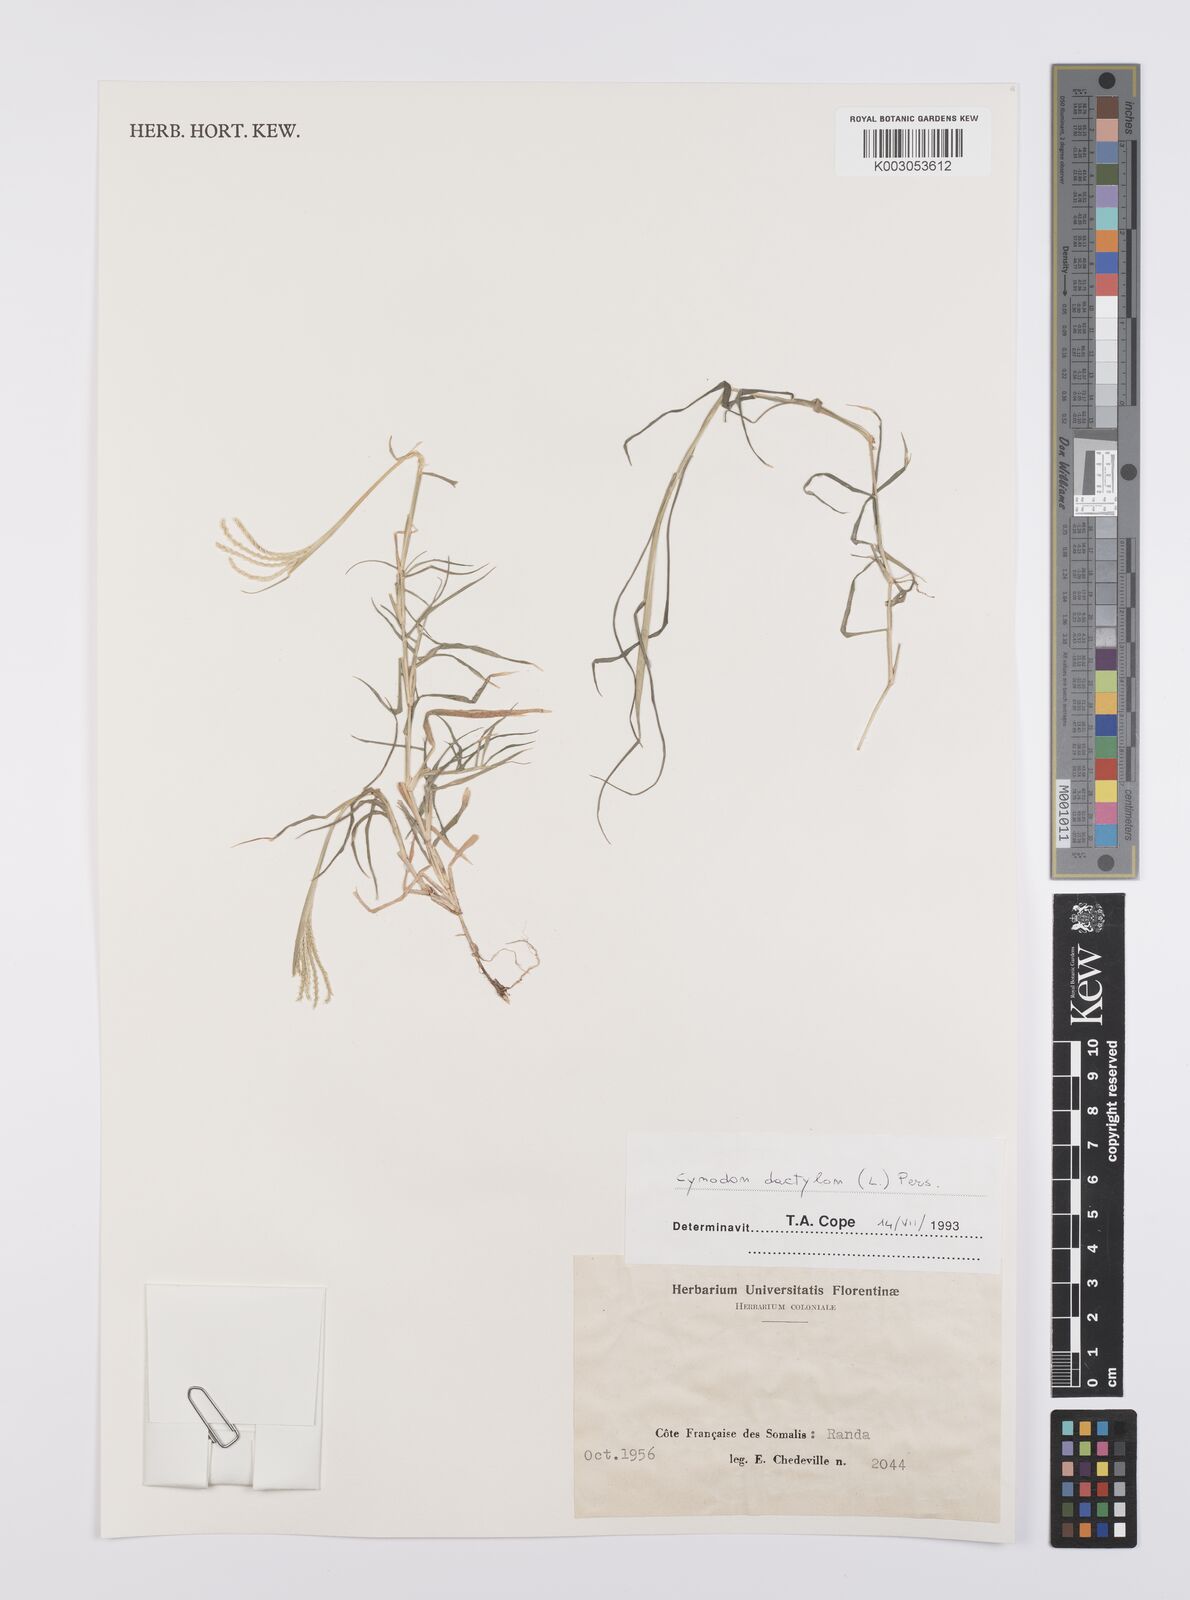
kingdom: Plantae
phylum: Tracheophyta
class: Liliopsida
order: Poales
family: Poaceae
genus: Cynodon
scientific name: Cynodon dactylon
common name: Bermuda grass
